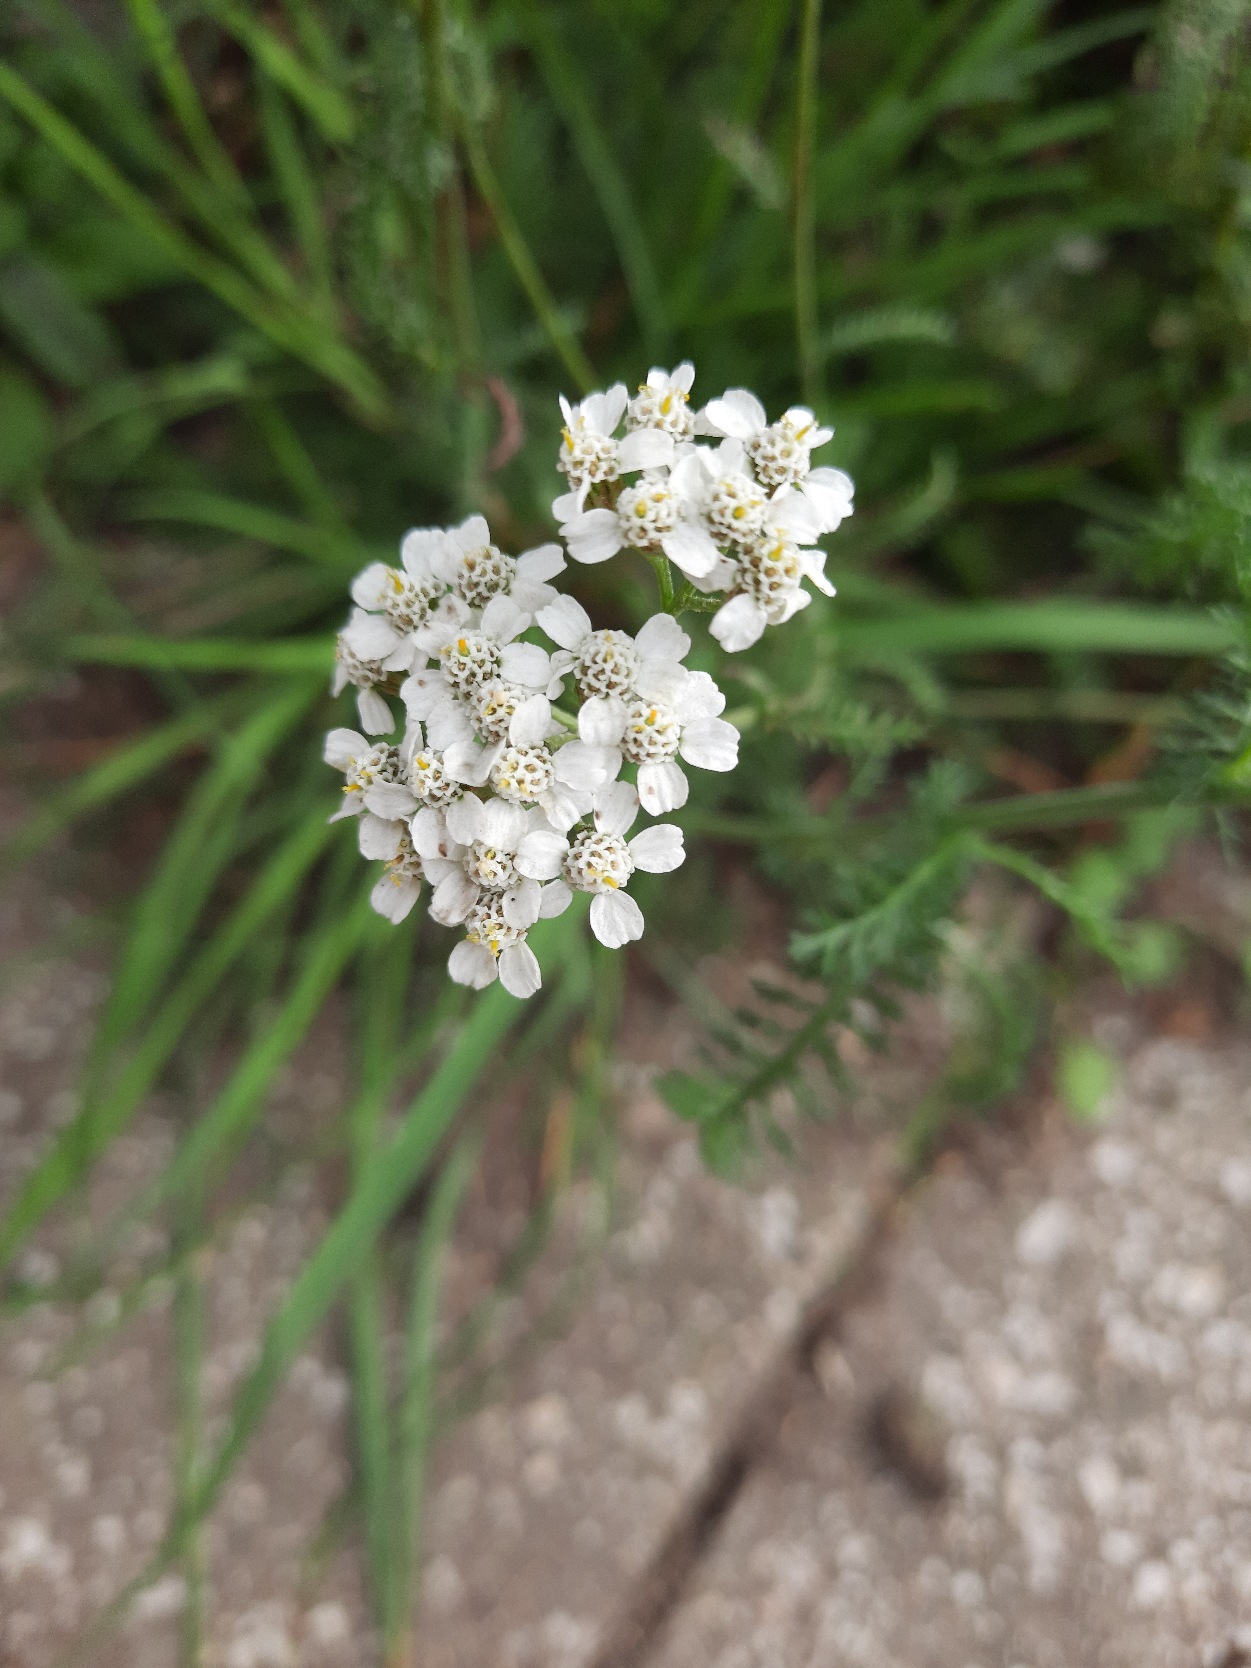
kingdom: Plantae
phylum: Tracheophyta
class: Magnoliopsida
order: Asterales
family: Asteraceae
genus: Achillea
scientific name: Achillea millefolium
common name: Almindelig røllike
